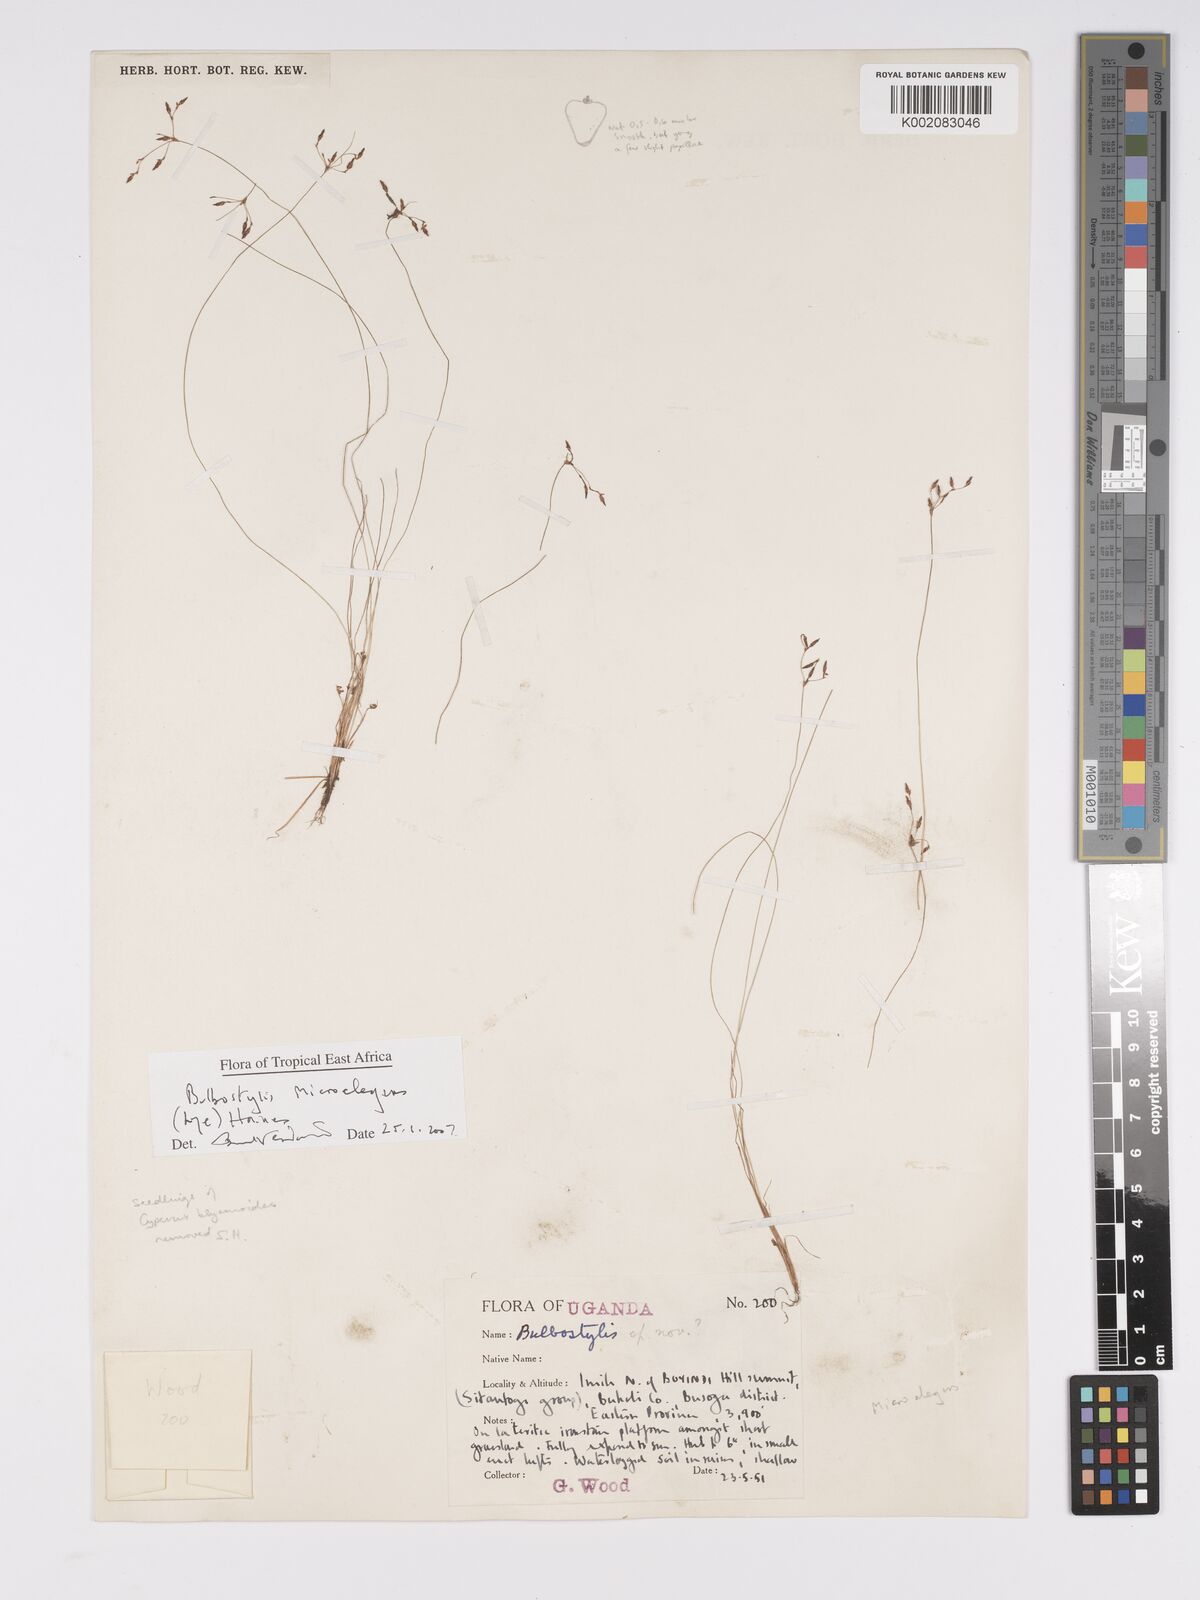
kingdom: Plantae
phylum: Tracheophyta
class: Liliopsida
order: Poales
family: Cyperaceae
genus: Bulbostylis
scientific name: Bulbostylis microelegans
